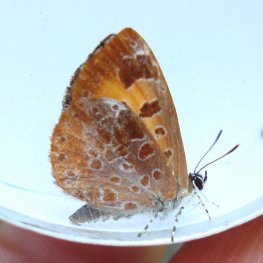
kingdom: Animalia
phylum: Arthropoda
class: Insecta
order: Lepidoptera
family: Lycaenidae
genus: Feniseca
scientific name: Feniseca tarquinius
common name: Harvester
